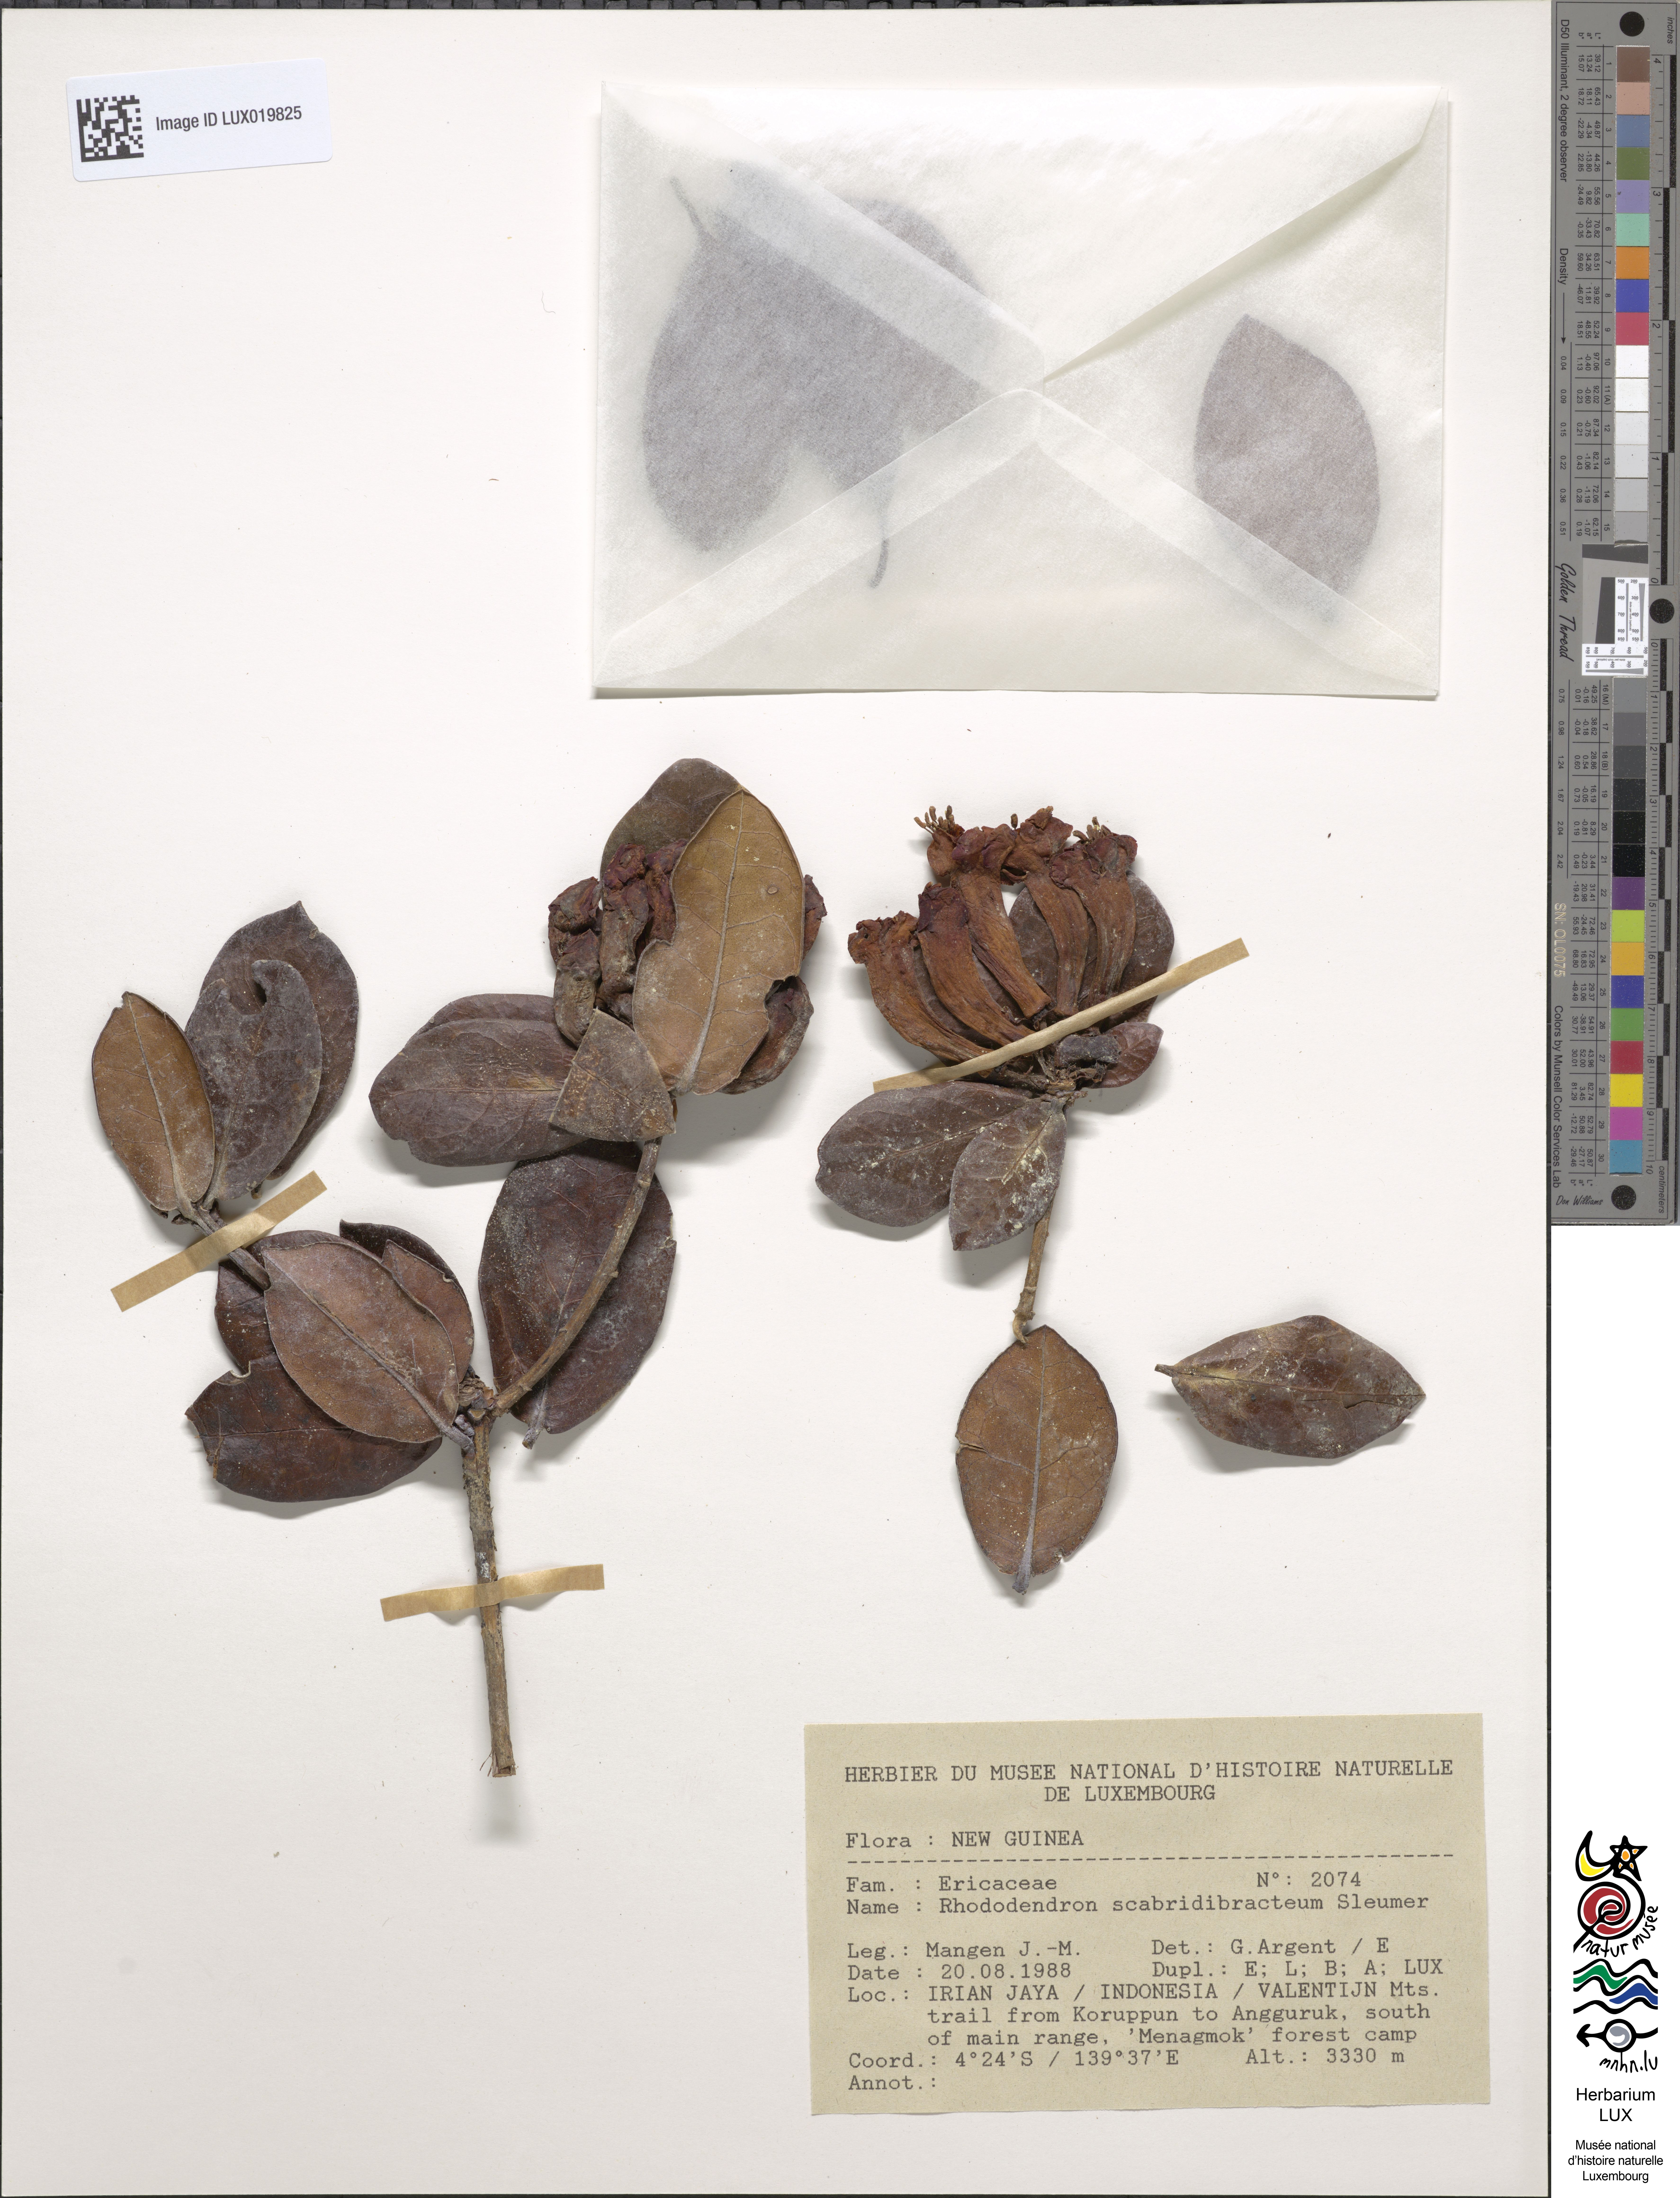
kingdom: Plantae
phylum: Tracheophyta
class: Magnoliopsida
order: Ericales
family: Ericaceae
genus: Rhododendron
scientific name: Rhododendron scabridibracteum
